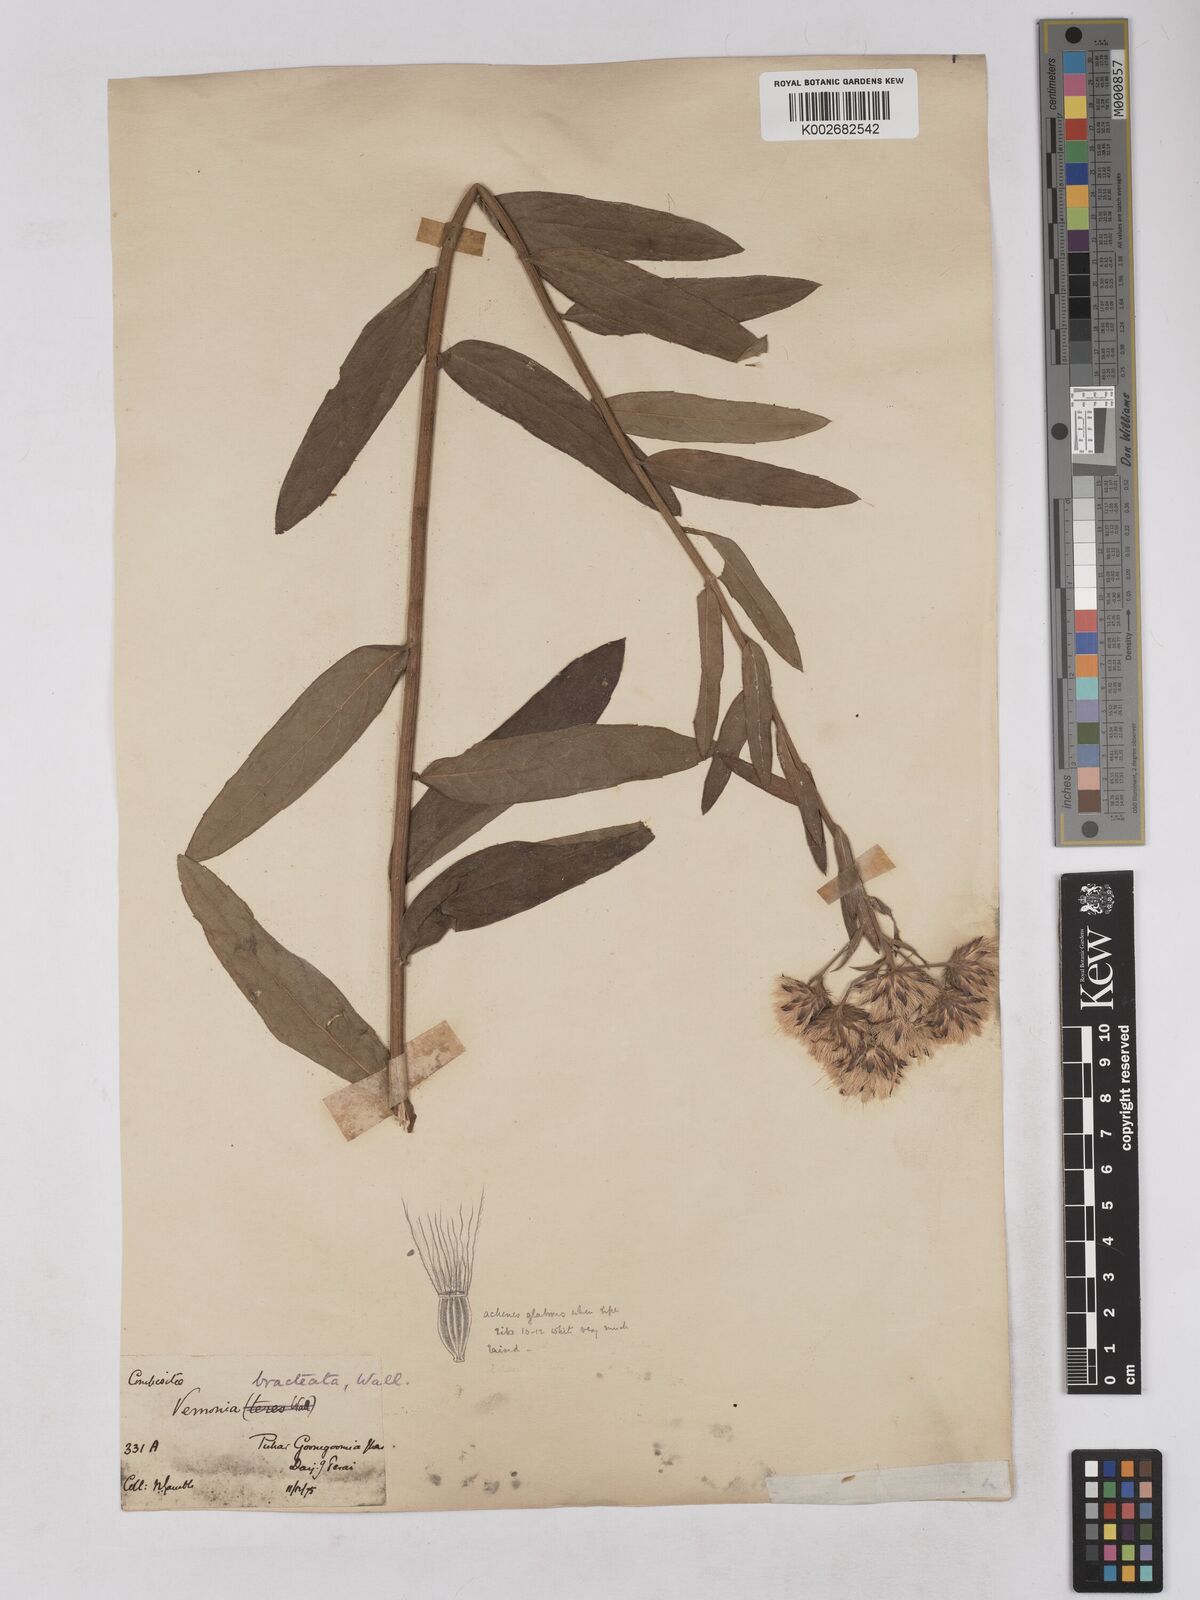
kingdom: Plantae
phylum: Tracheophyta
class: Magnoliopsida
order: Asterales
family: Asteraceae
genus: Acilepis
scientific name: Acilepis silhetensis
